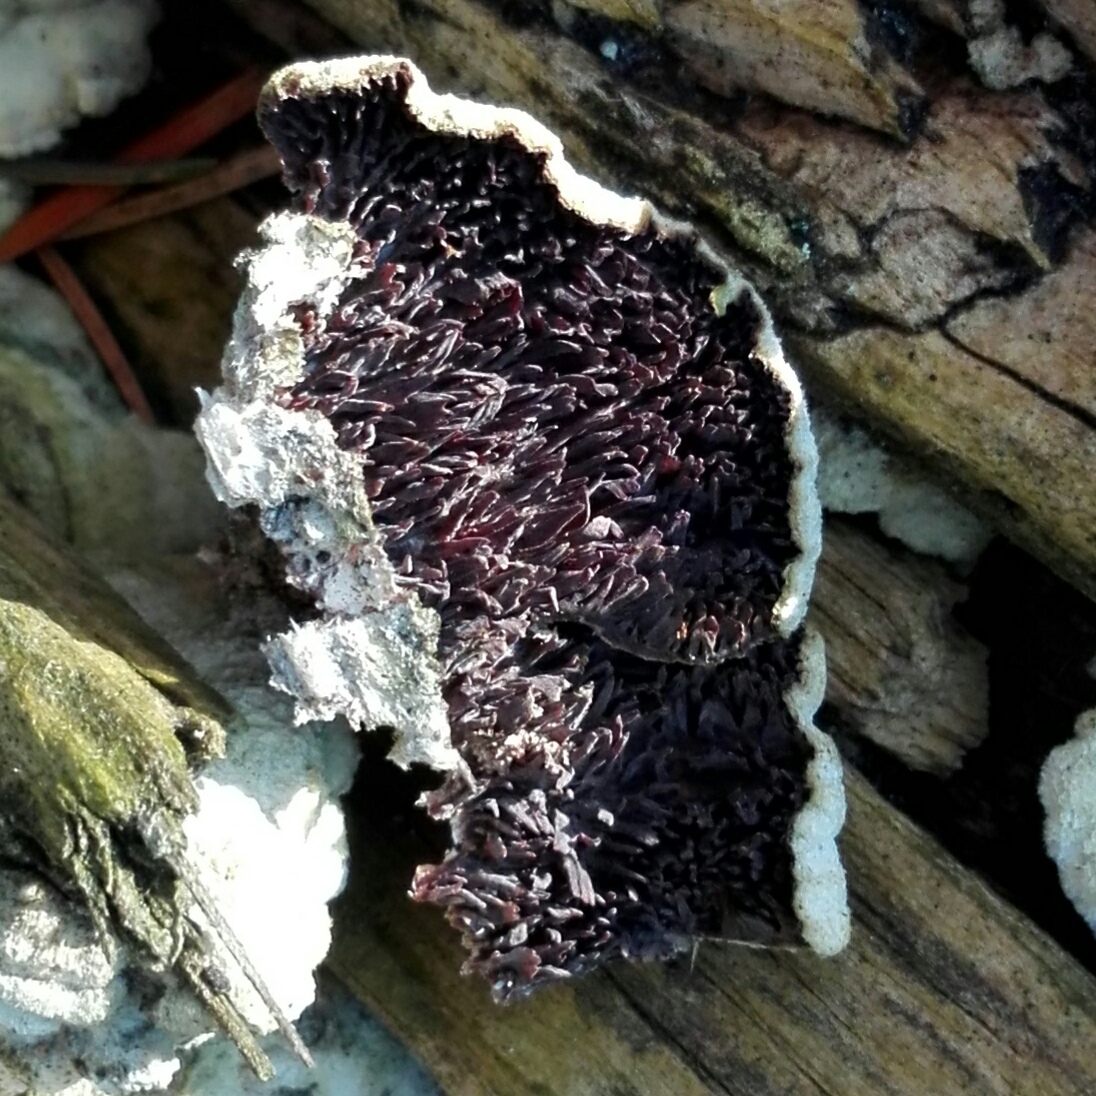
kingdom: Fungi
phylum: Basidiomycota
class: Agaricomycetes
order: Hymenochaetales
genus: Trichaptum
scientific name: Trichaptum fuscoviolaceum
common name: tandet violporesvamp
